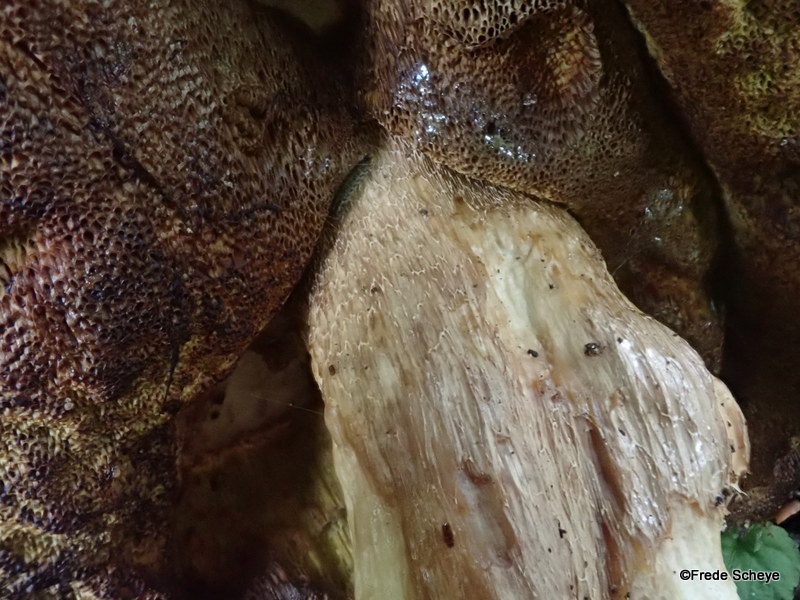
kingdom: Fungi
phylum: Basidiomycota
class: Agaricomycetes
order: Boletales
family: Boletaceae
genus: Boletus
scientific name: Boletus edulis
